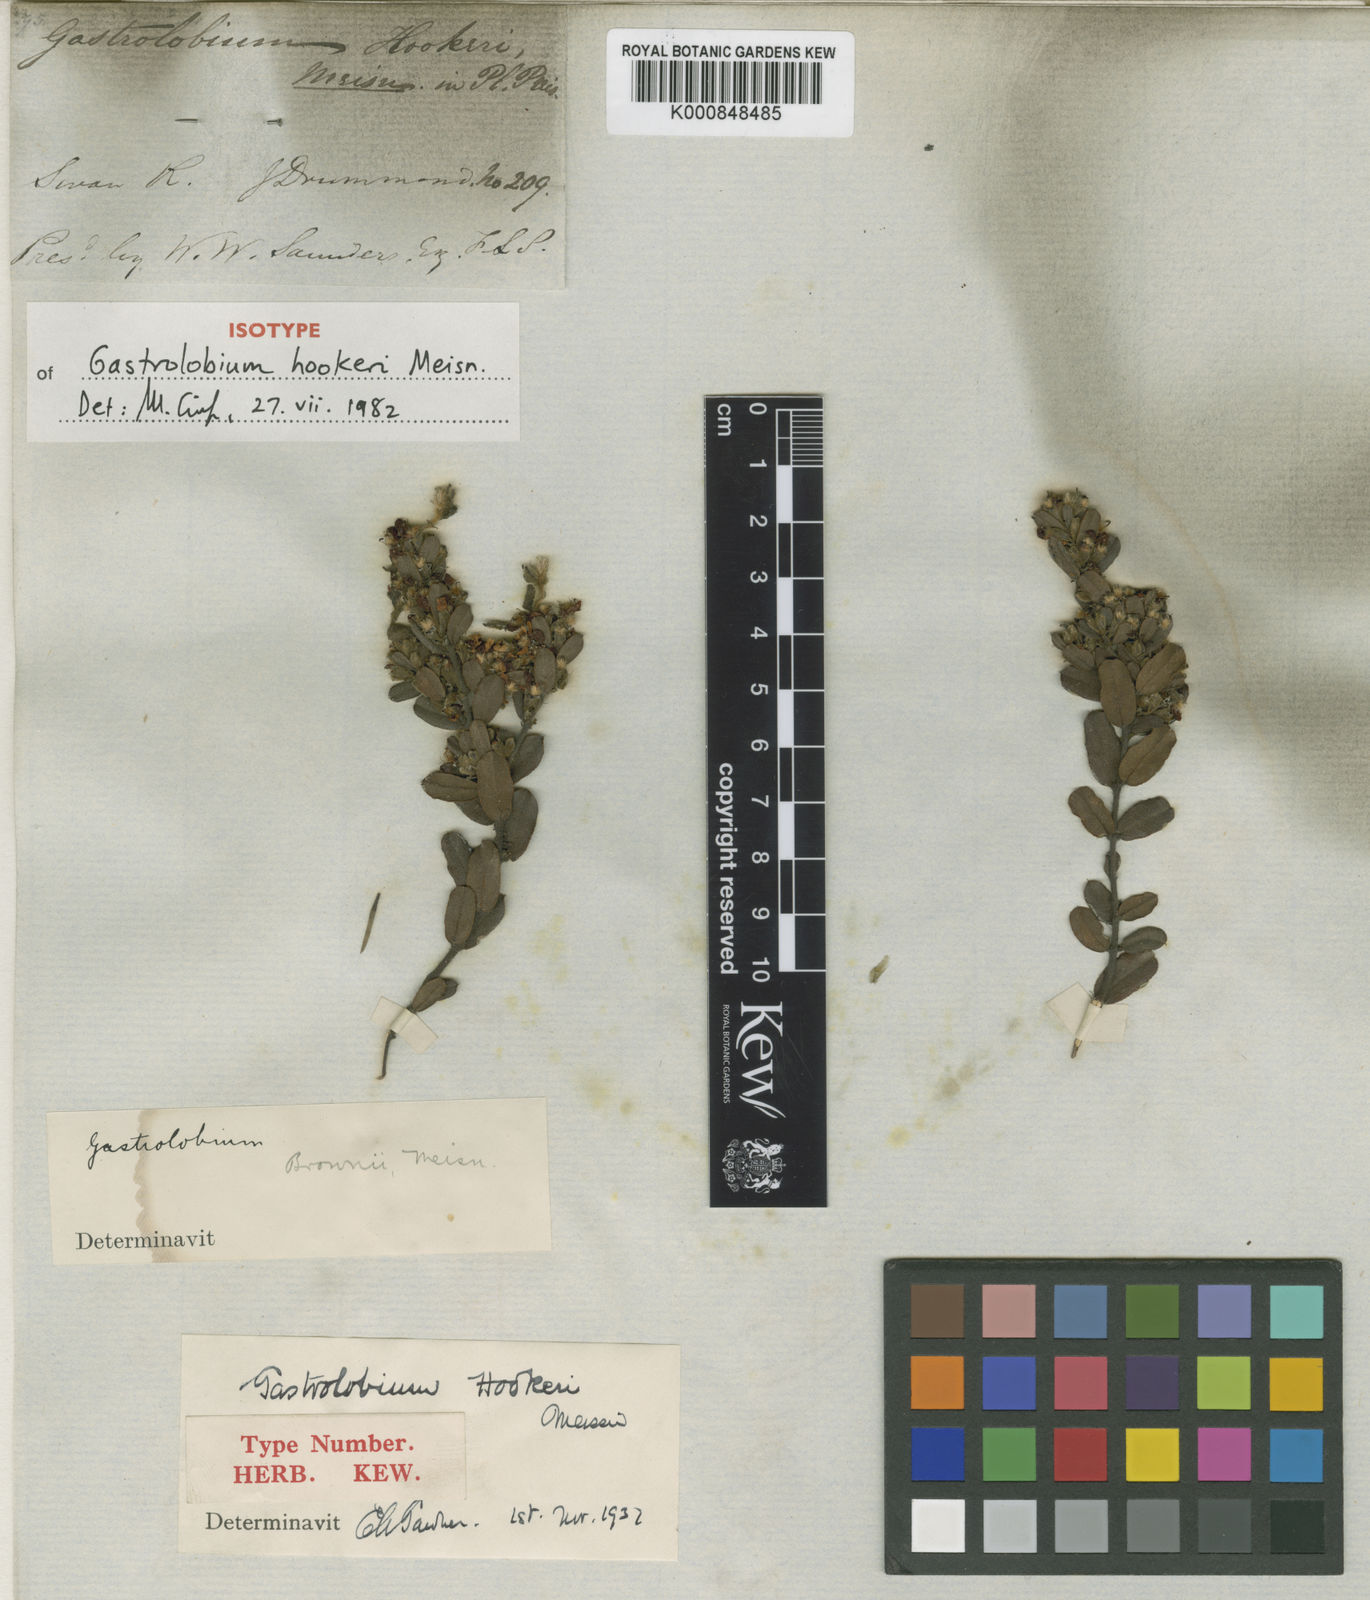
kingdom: Plantae
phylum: Tracheophyta
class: Magnoliopsida
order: Fabales
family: Fabaceae
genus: Gastrolobium
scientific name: Gastrolobium hookeri
